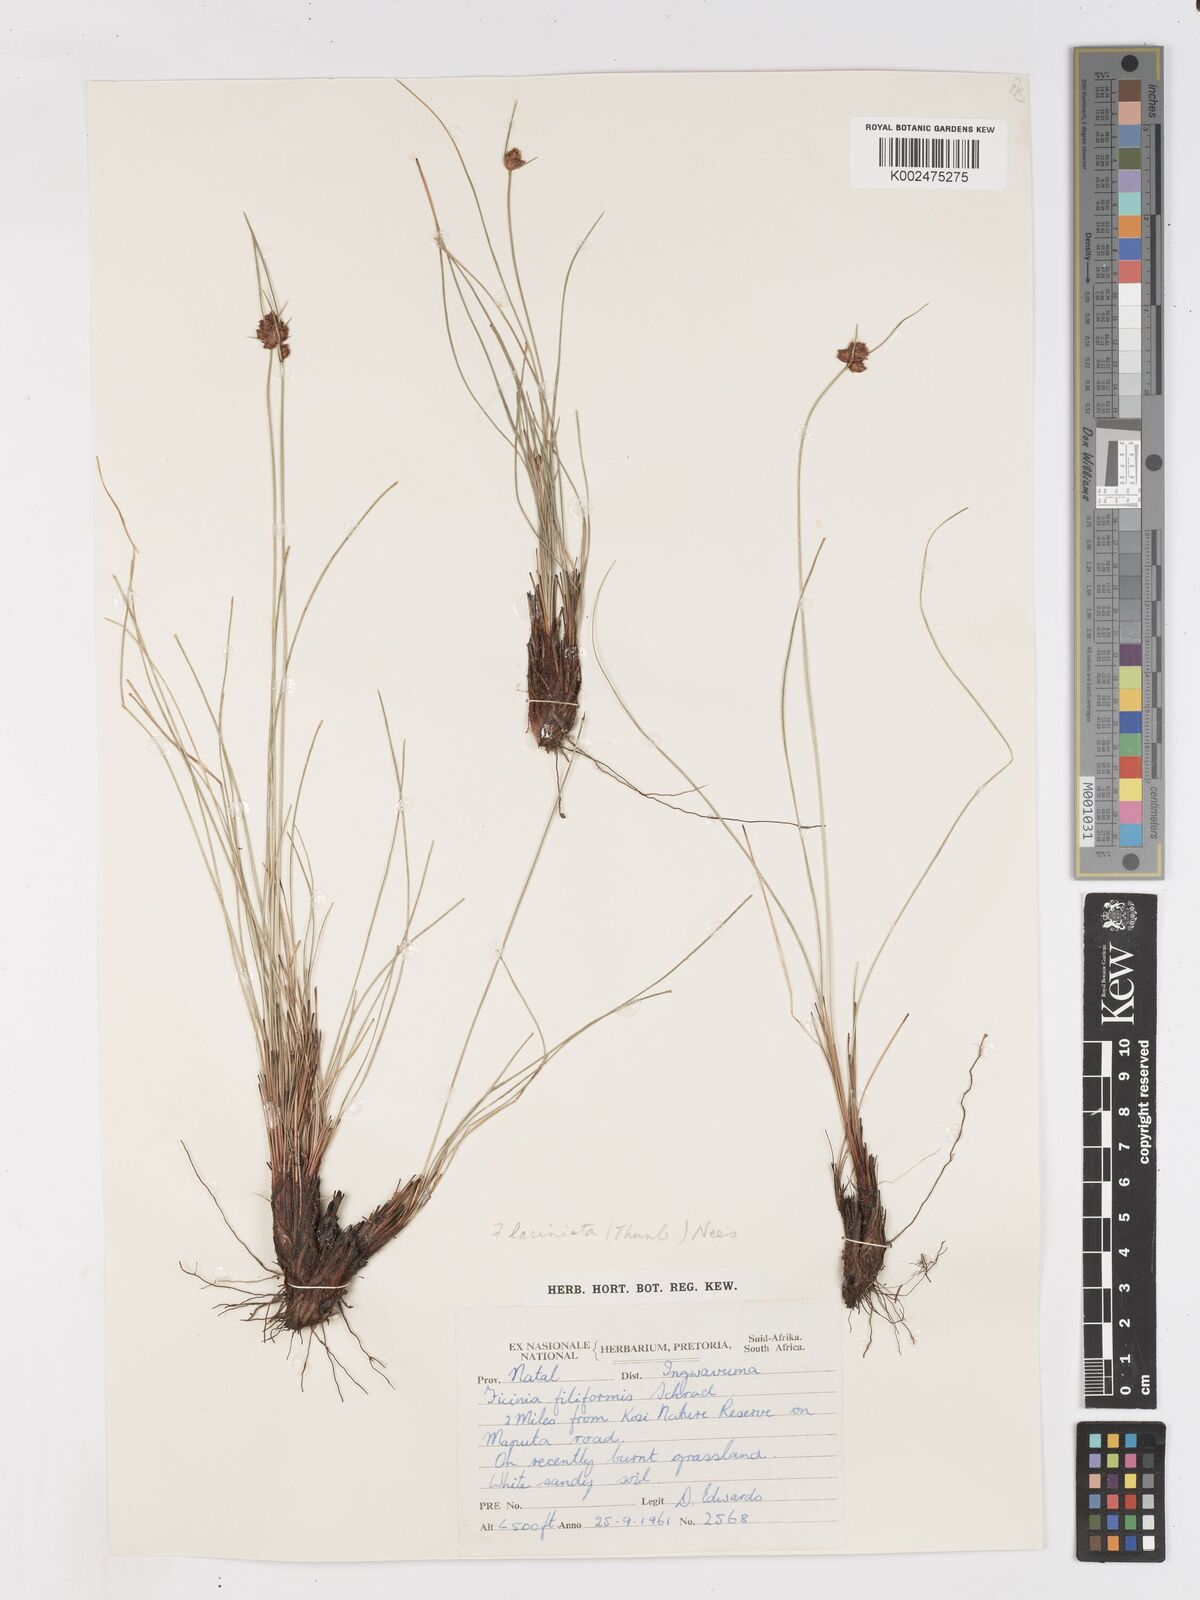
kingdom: Plantae
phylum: Tracheophyta
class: Liliopsida
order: Poales
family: Cyperaceae
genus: Ficinia
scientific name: Ficinia laciniata
